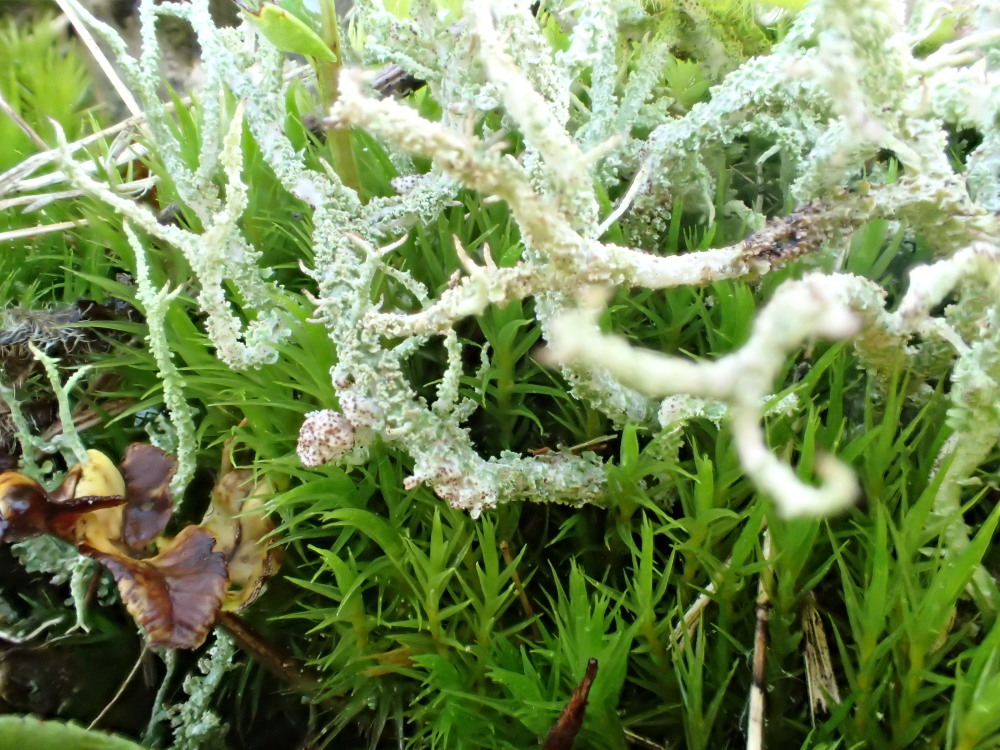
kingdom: Fungi
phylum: Ascomycota
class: Lecanoromycetes
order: Lecanorales
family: Cladoniaceae
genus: Cladonia
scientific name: Cladonia scabriuscula
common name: ru bægerlav
